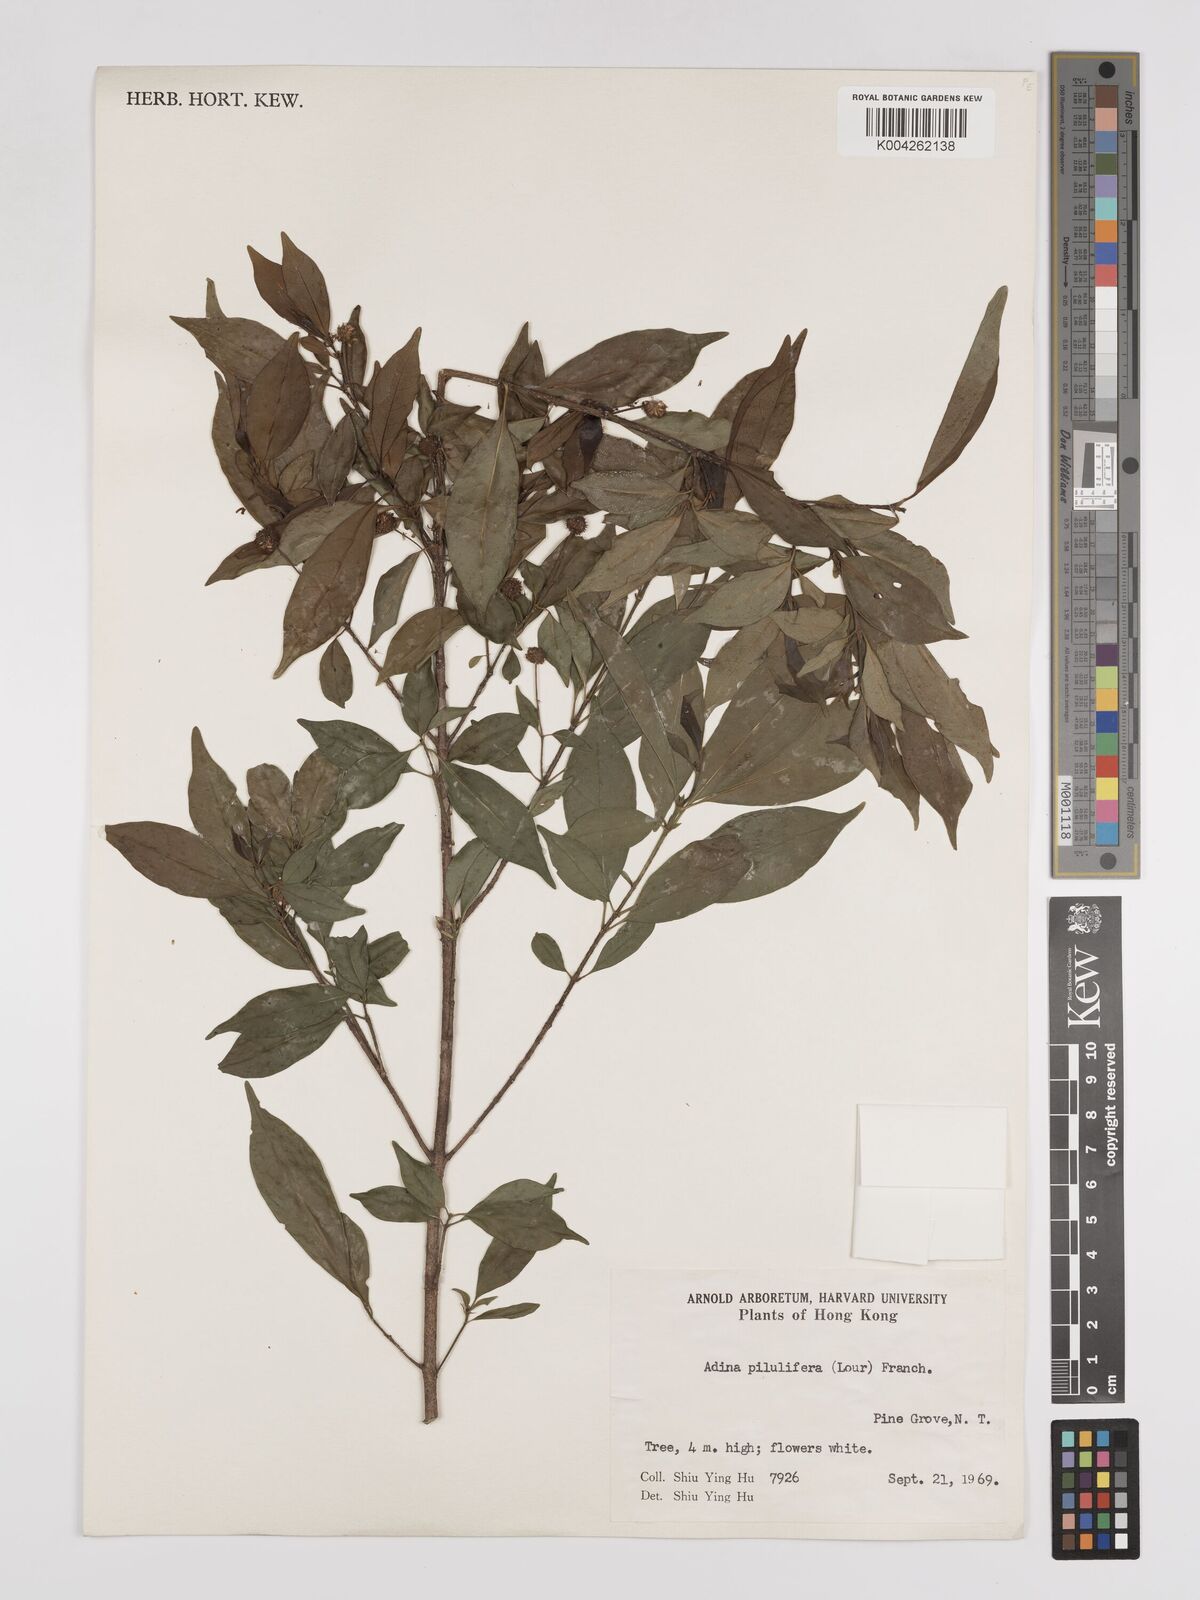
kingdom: Plantae
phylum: Tracheophyta
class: Magnoliopsida
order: Gentianales
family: Rubiaceae
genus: Adina
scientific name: Adina pilulifera
